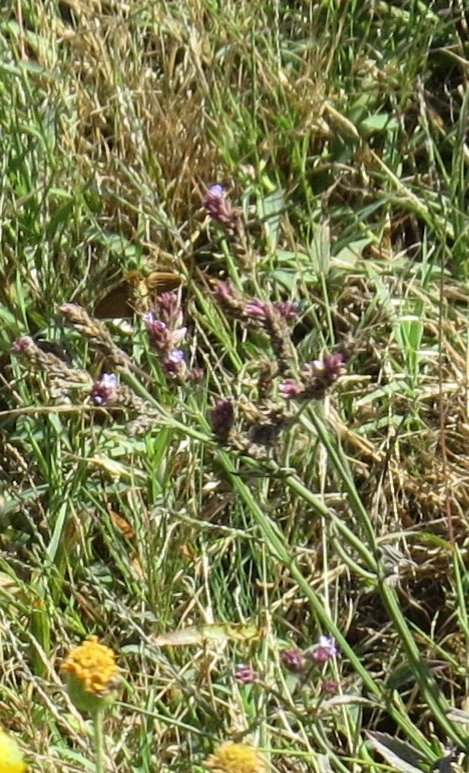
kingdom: Animalia
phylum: Arthropoda
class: Insecta
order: Lepidoptera
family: Hesperiidae
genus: Panoquina
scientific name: Panoquina ocola
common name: Ocola Skipper
